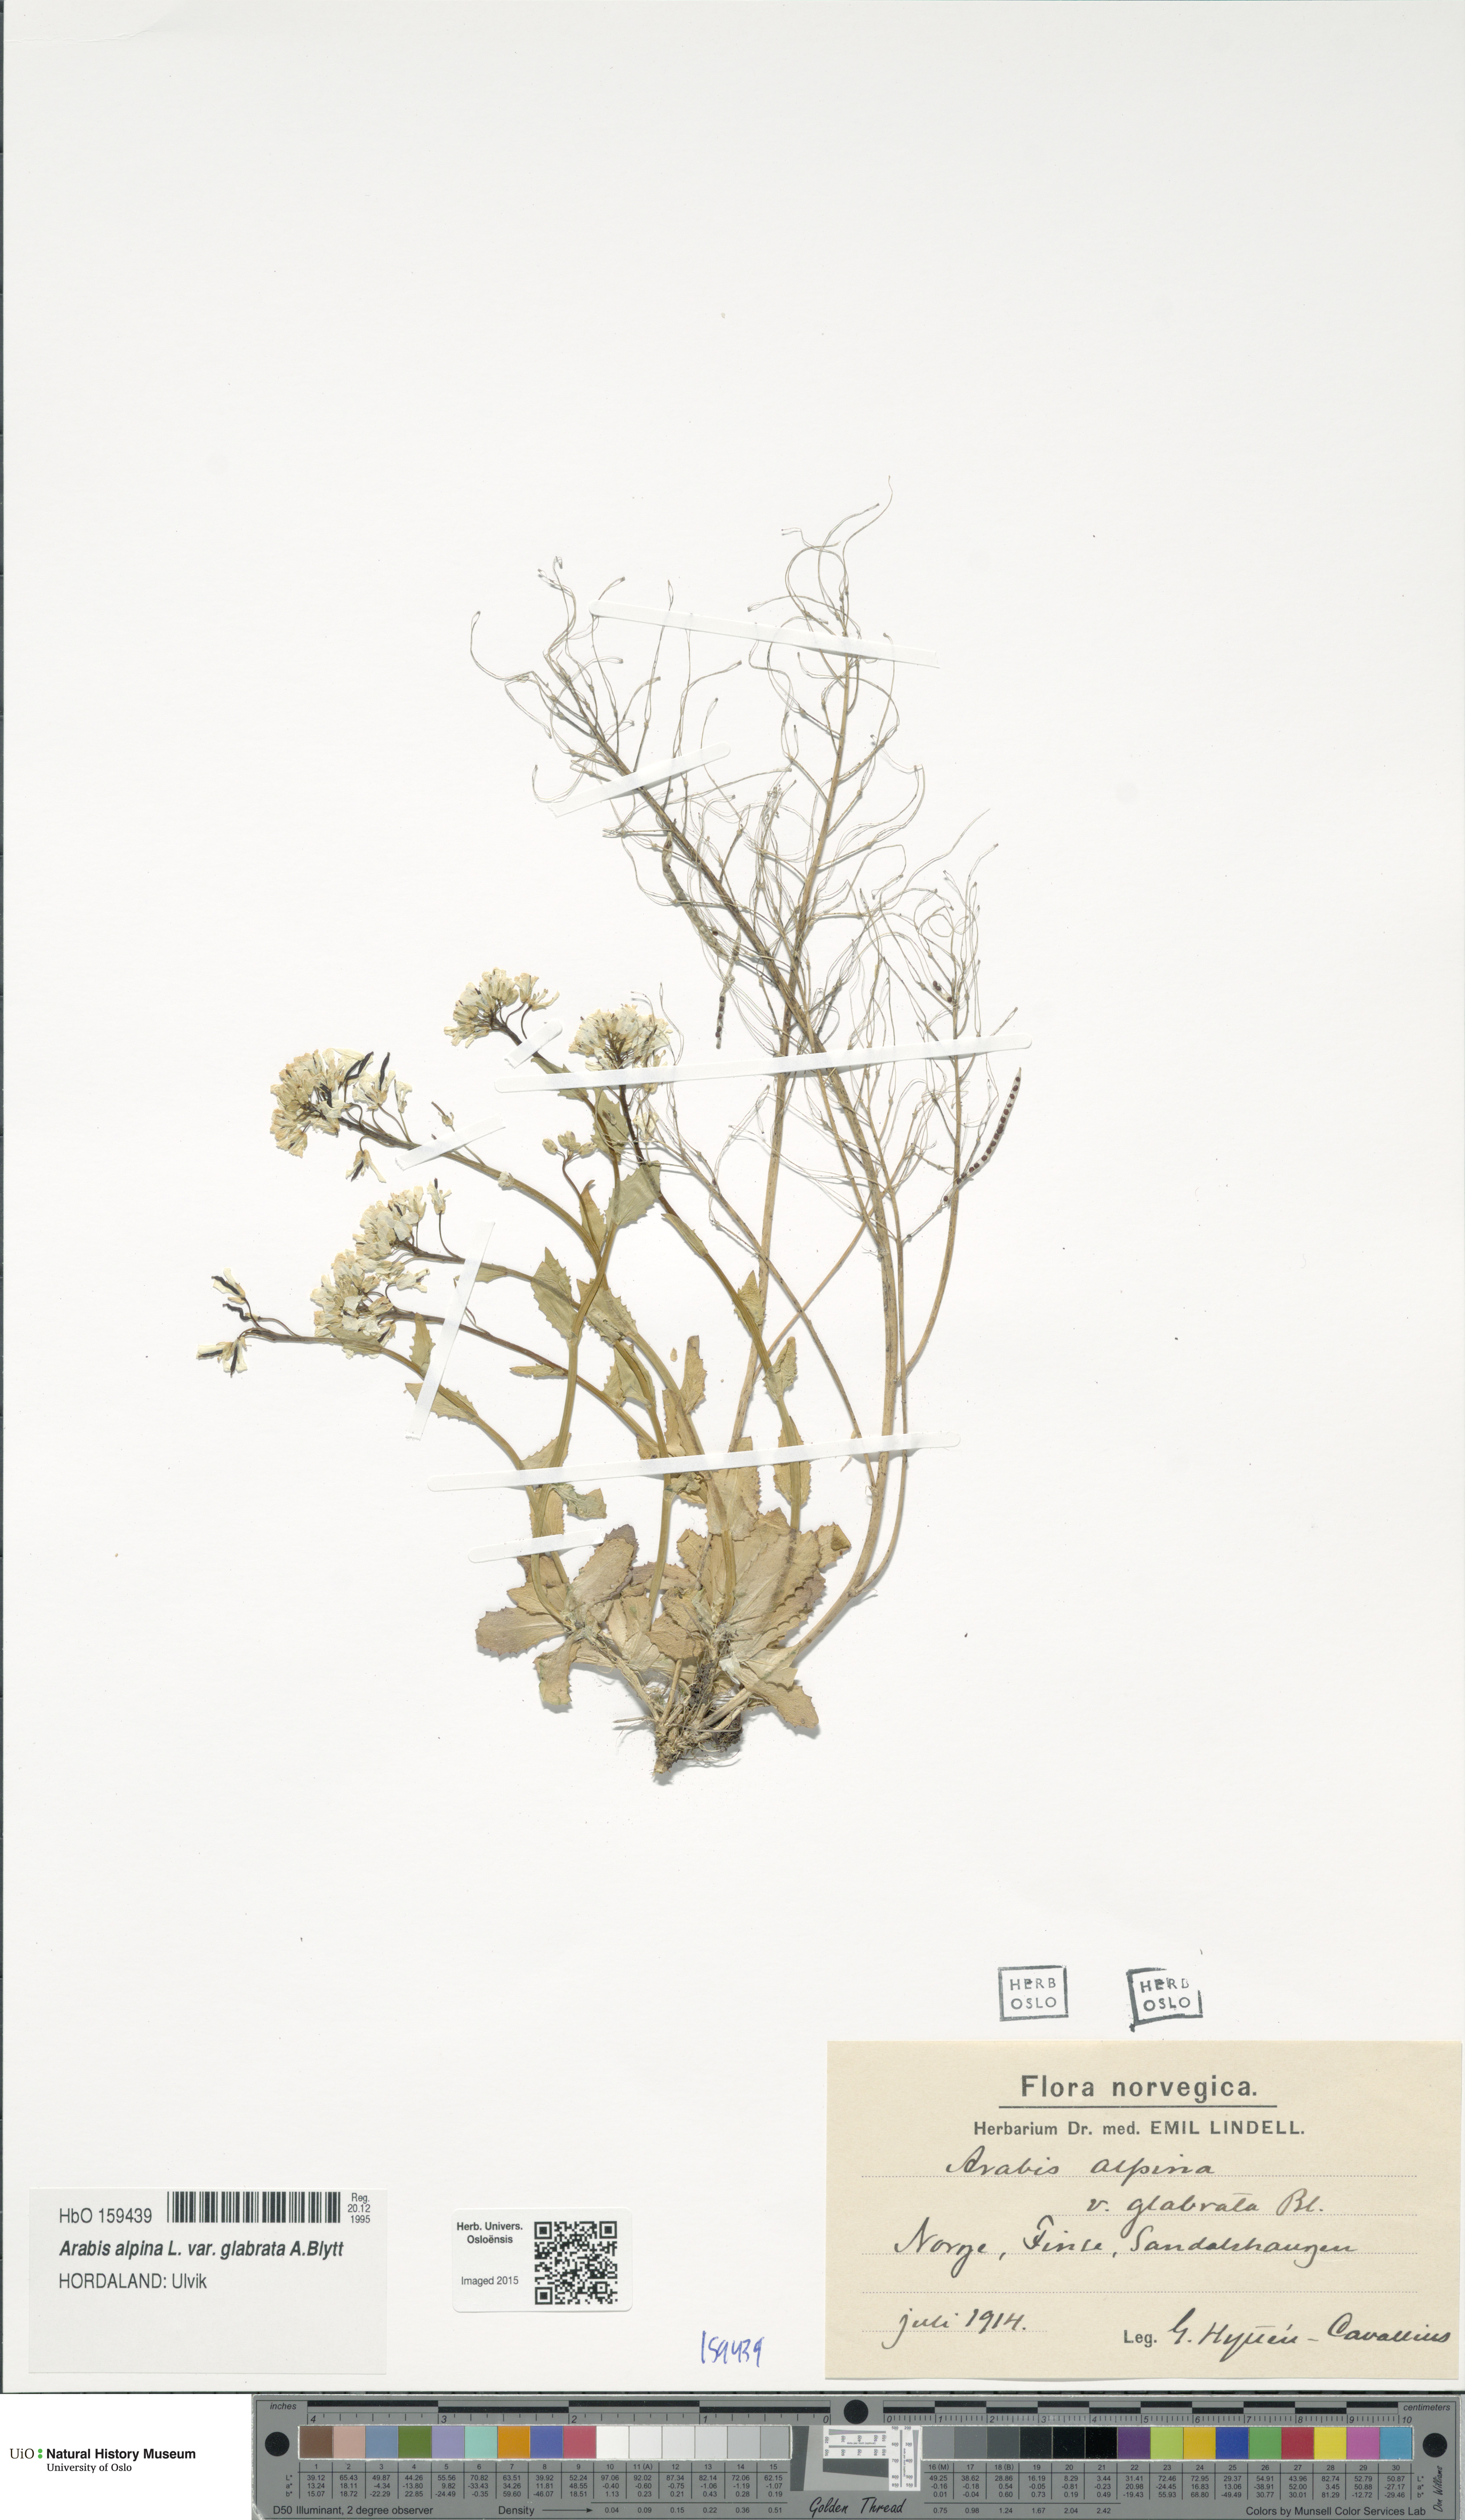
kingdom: Plantae
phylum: Tracheophyta
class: Magnoliopsida
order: Brassicales
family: Brassicaceae
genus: Arabis
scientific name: Arabis alpina
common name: Alpine rock-cress
